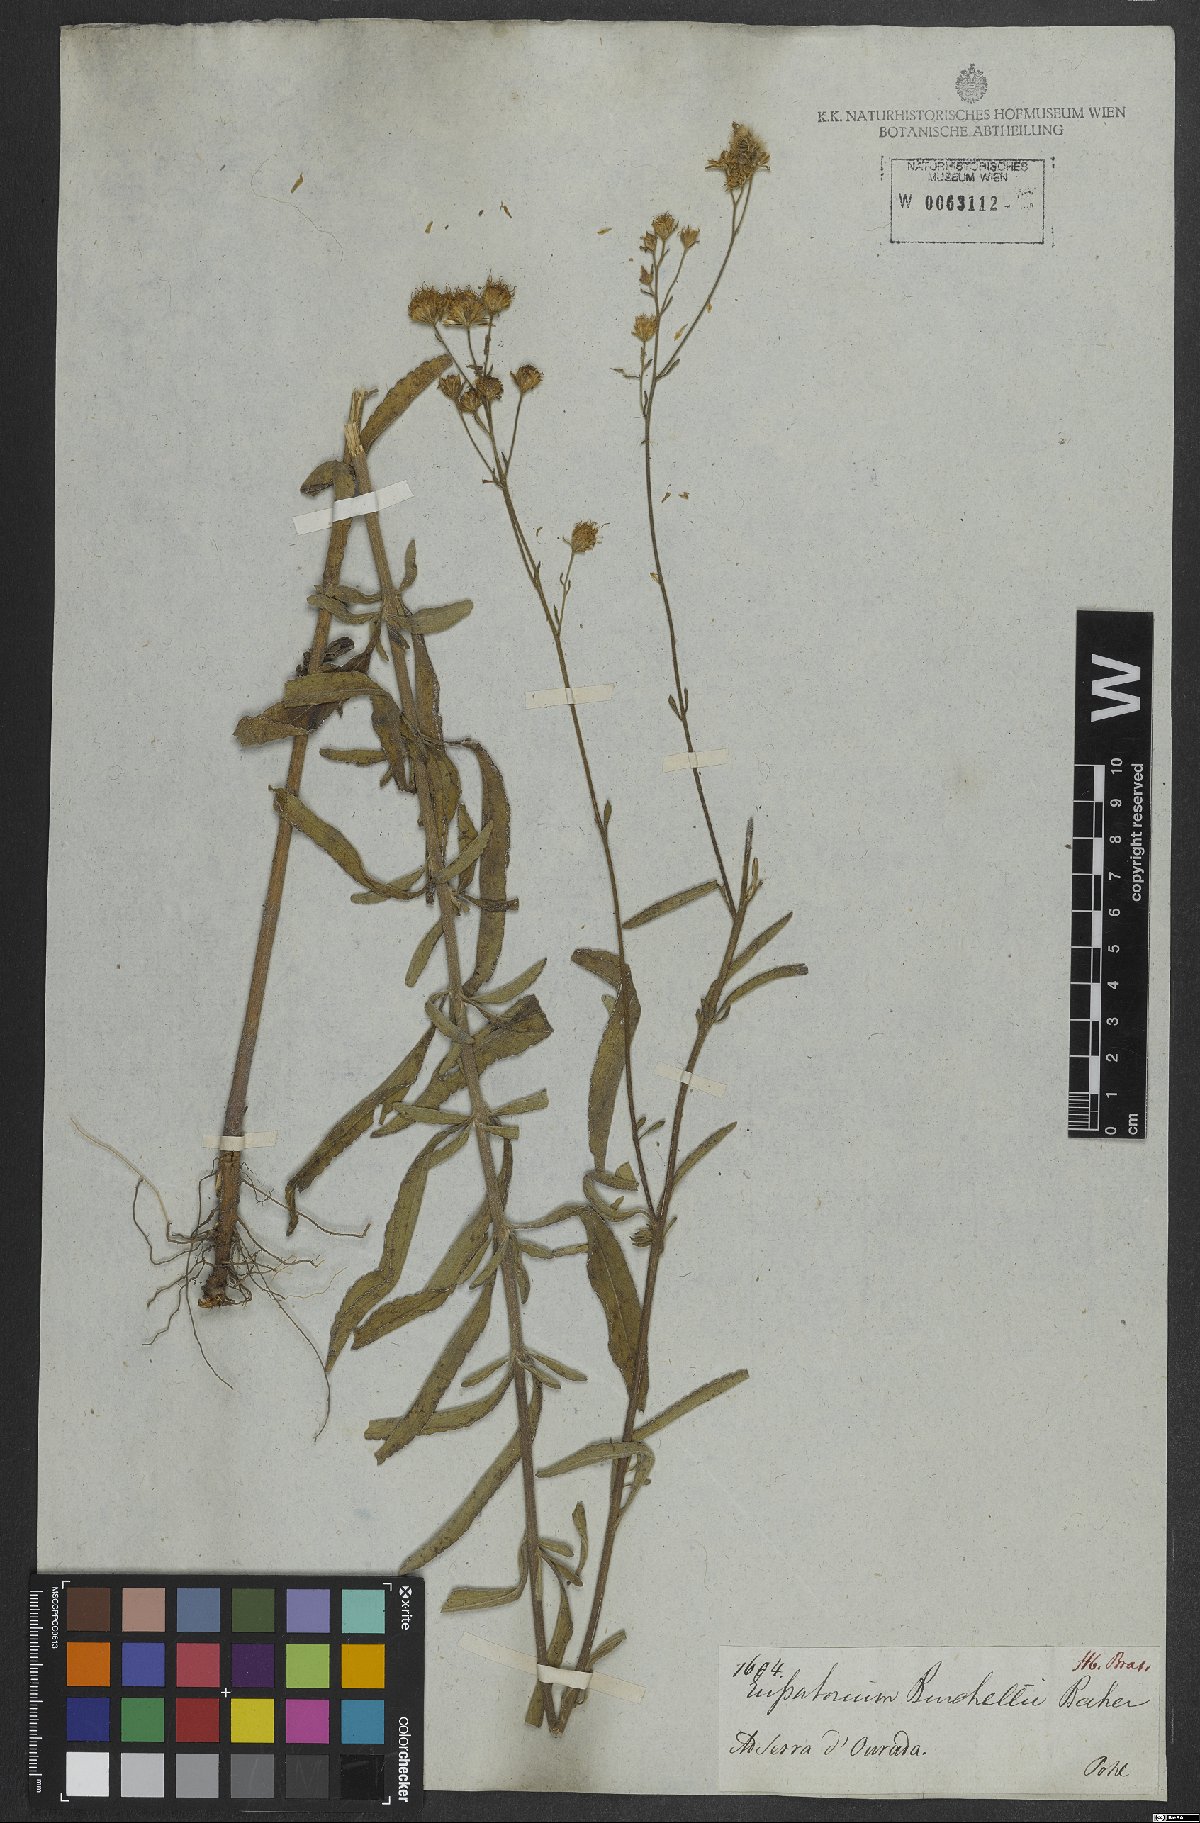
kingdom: Plantae
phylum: Tracheophyta
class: Magnoliopsida
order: Asterales
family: Asteraceae
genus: Campuloclinium
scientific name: Campuloclinium burchellii
